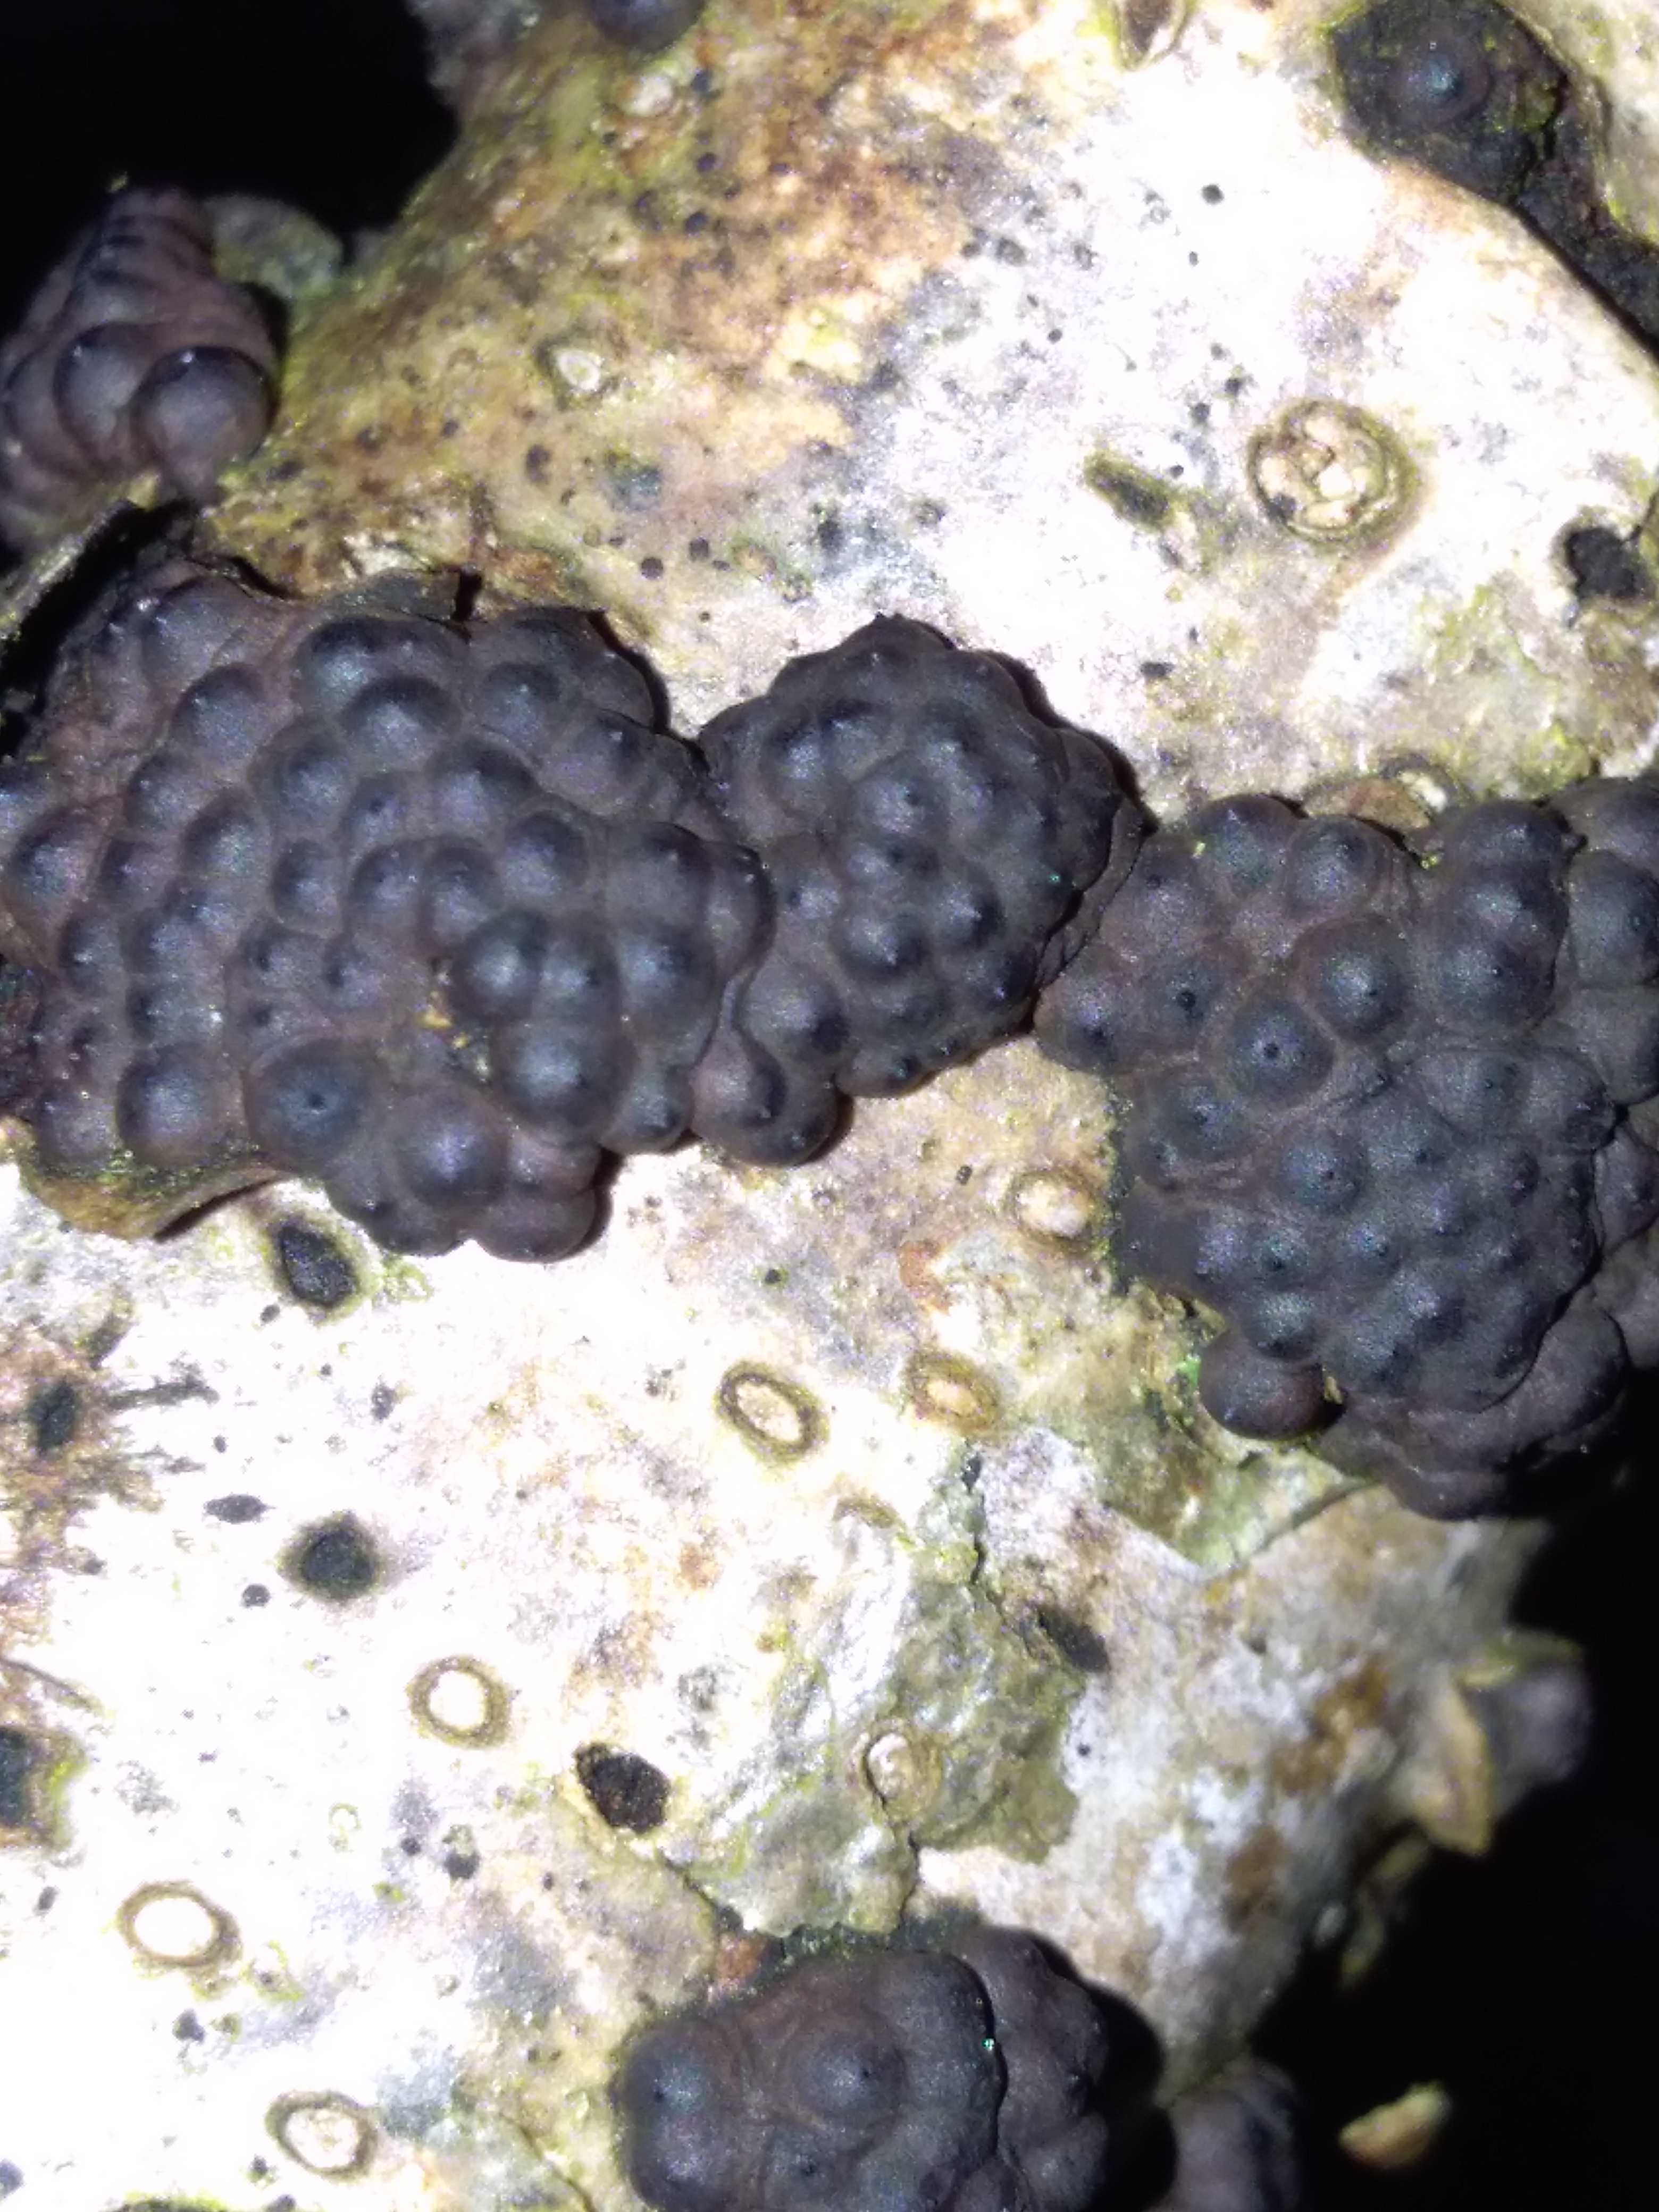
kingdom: Fungi
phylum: Ascomycota
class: Sordariomycetes
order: Xylariales
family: Hypoxylaceae
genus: Jackrogersella
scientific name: Jackrogersella multiformis
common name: foranderlig kulbær
